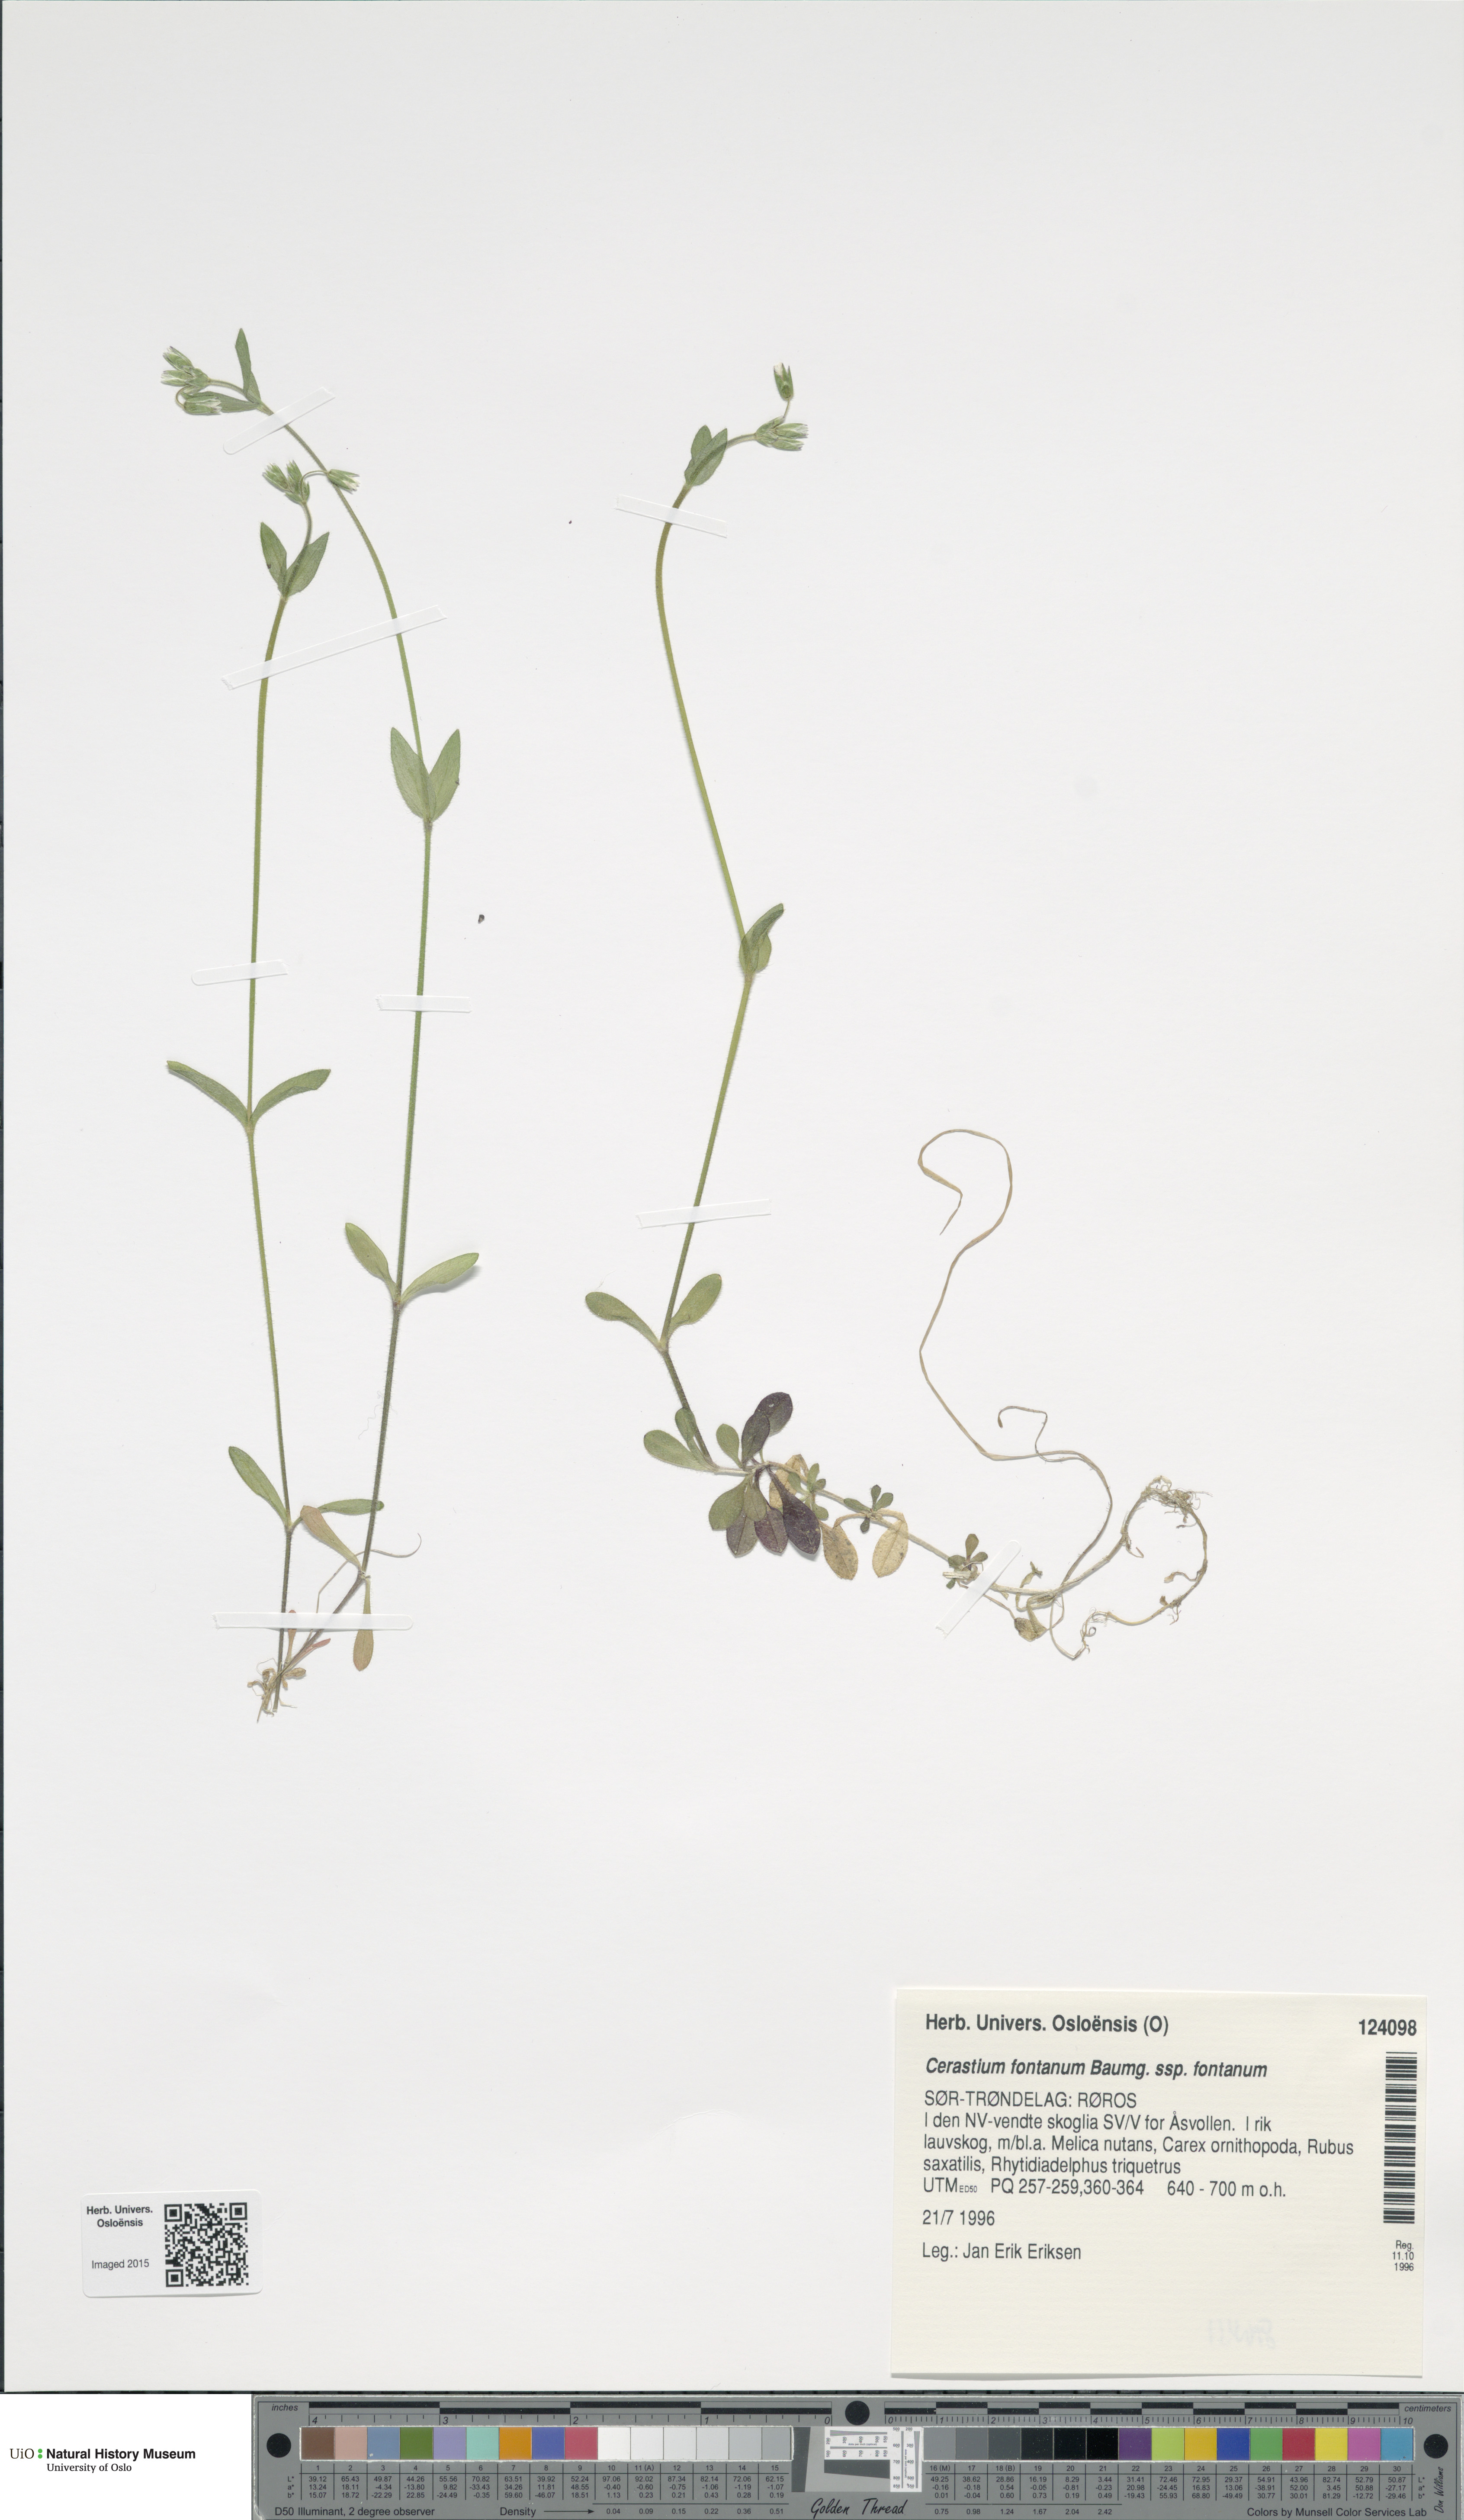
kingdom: Plantae
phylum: Tracheophyta
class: Magnoliopsida
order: Caryophyllales
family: Caryophyllaceae
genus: Cerastium
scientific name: Cerastium fontanum
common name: Common mouse-ear
